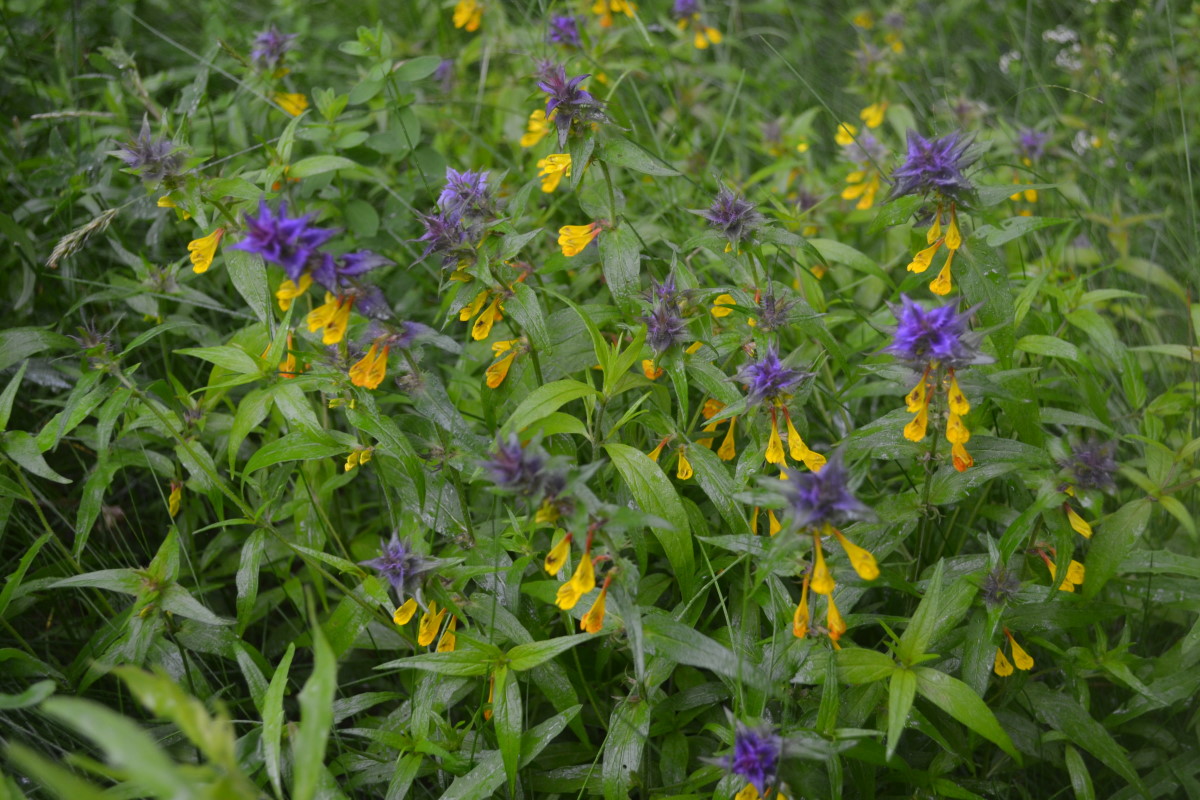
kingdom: Plantae
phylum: Tracheophyta
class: Magnoliopsida
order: Lamiales
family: Orobanchaceae
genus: Melampyrum
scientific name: Melampyrum nemorosum
